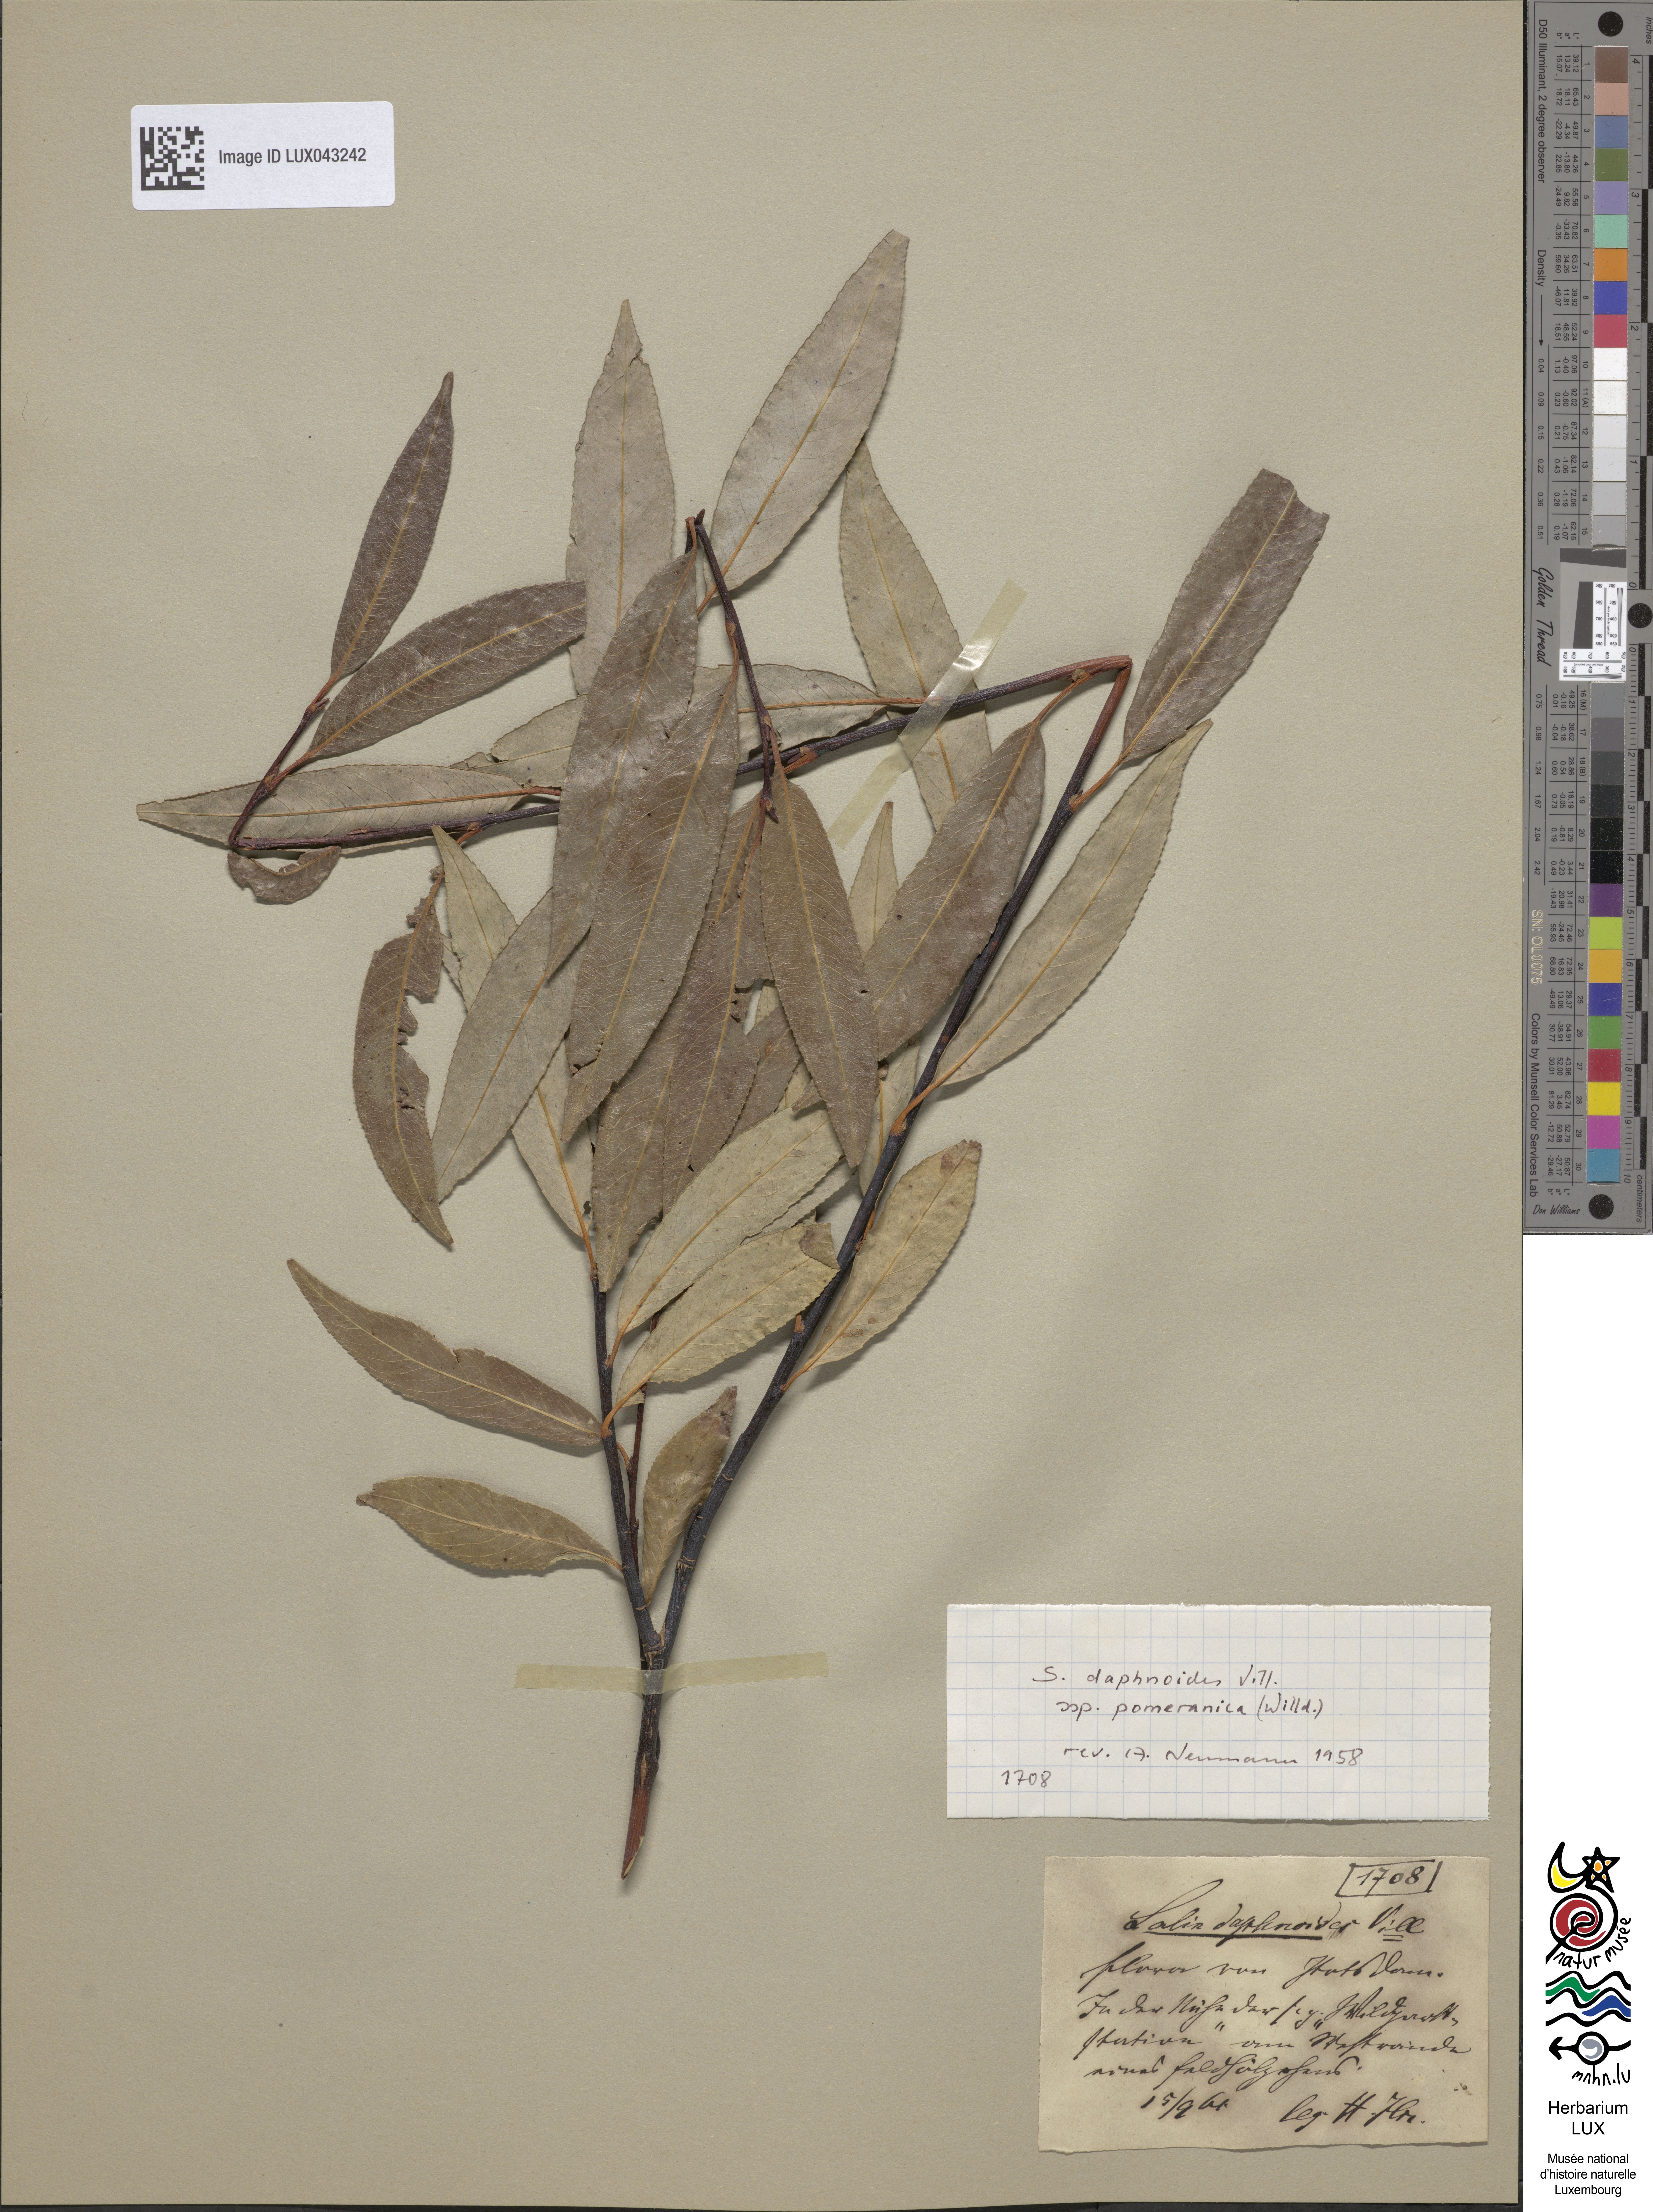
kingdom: Plantae
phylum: Tracheophyta
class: Magnoliopsida
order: Malpighiales
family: Salicaceae
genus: Salix
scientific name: Salix daphnoides
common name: European violet-willow
